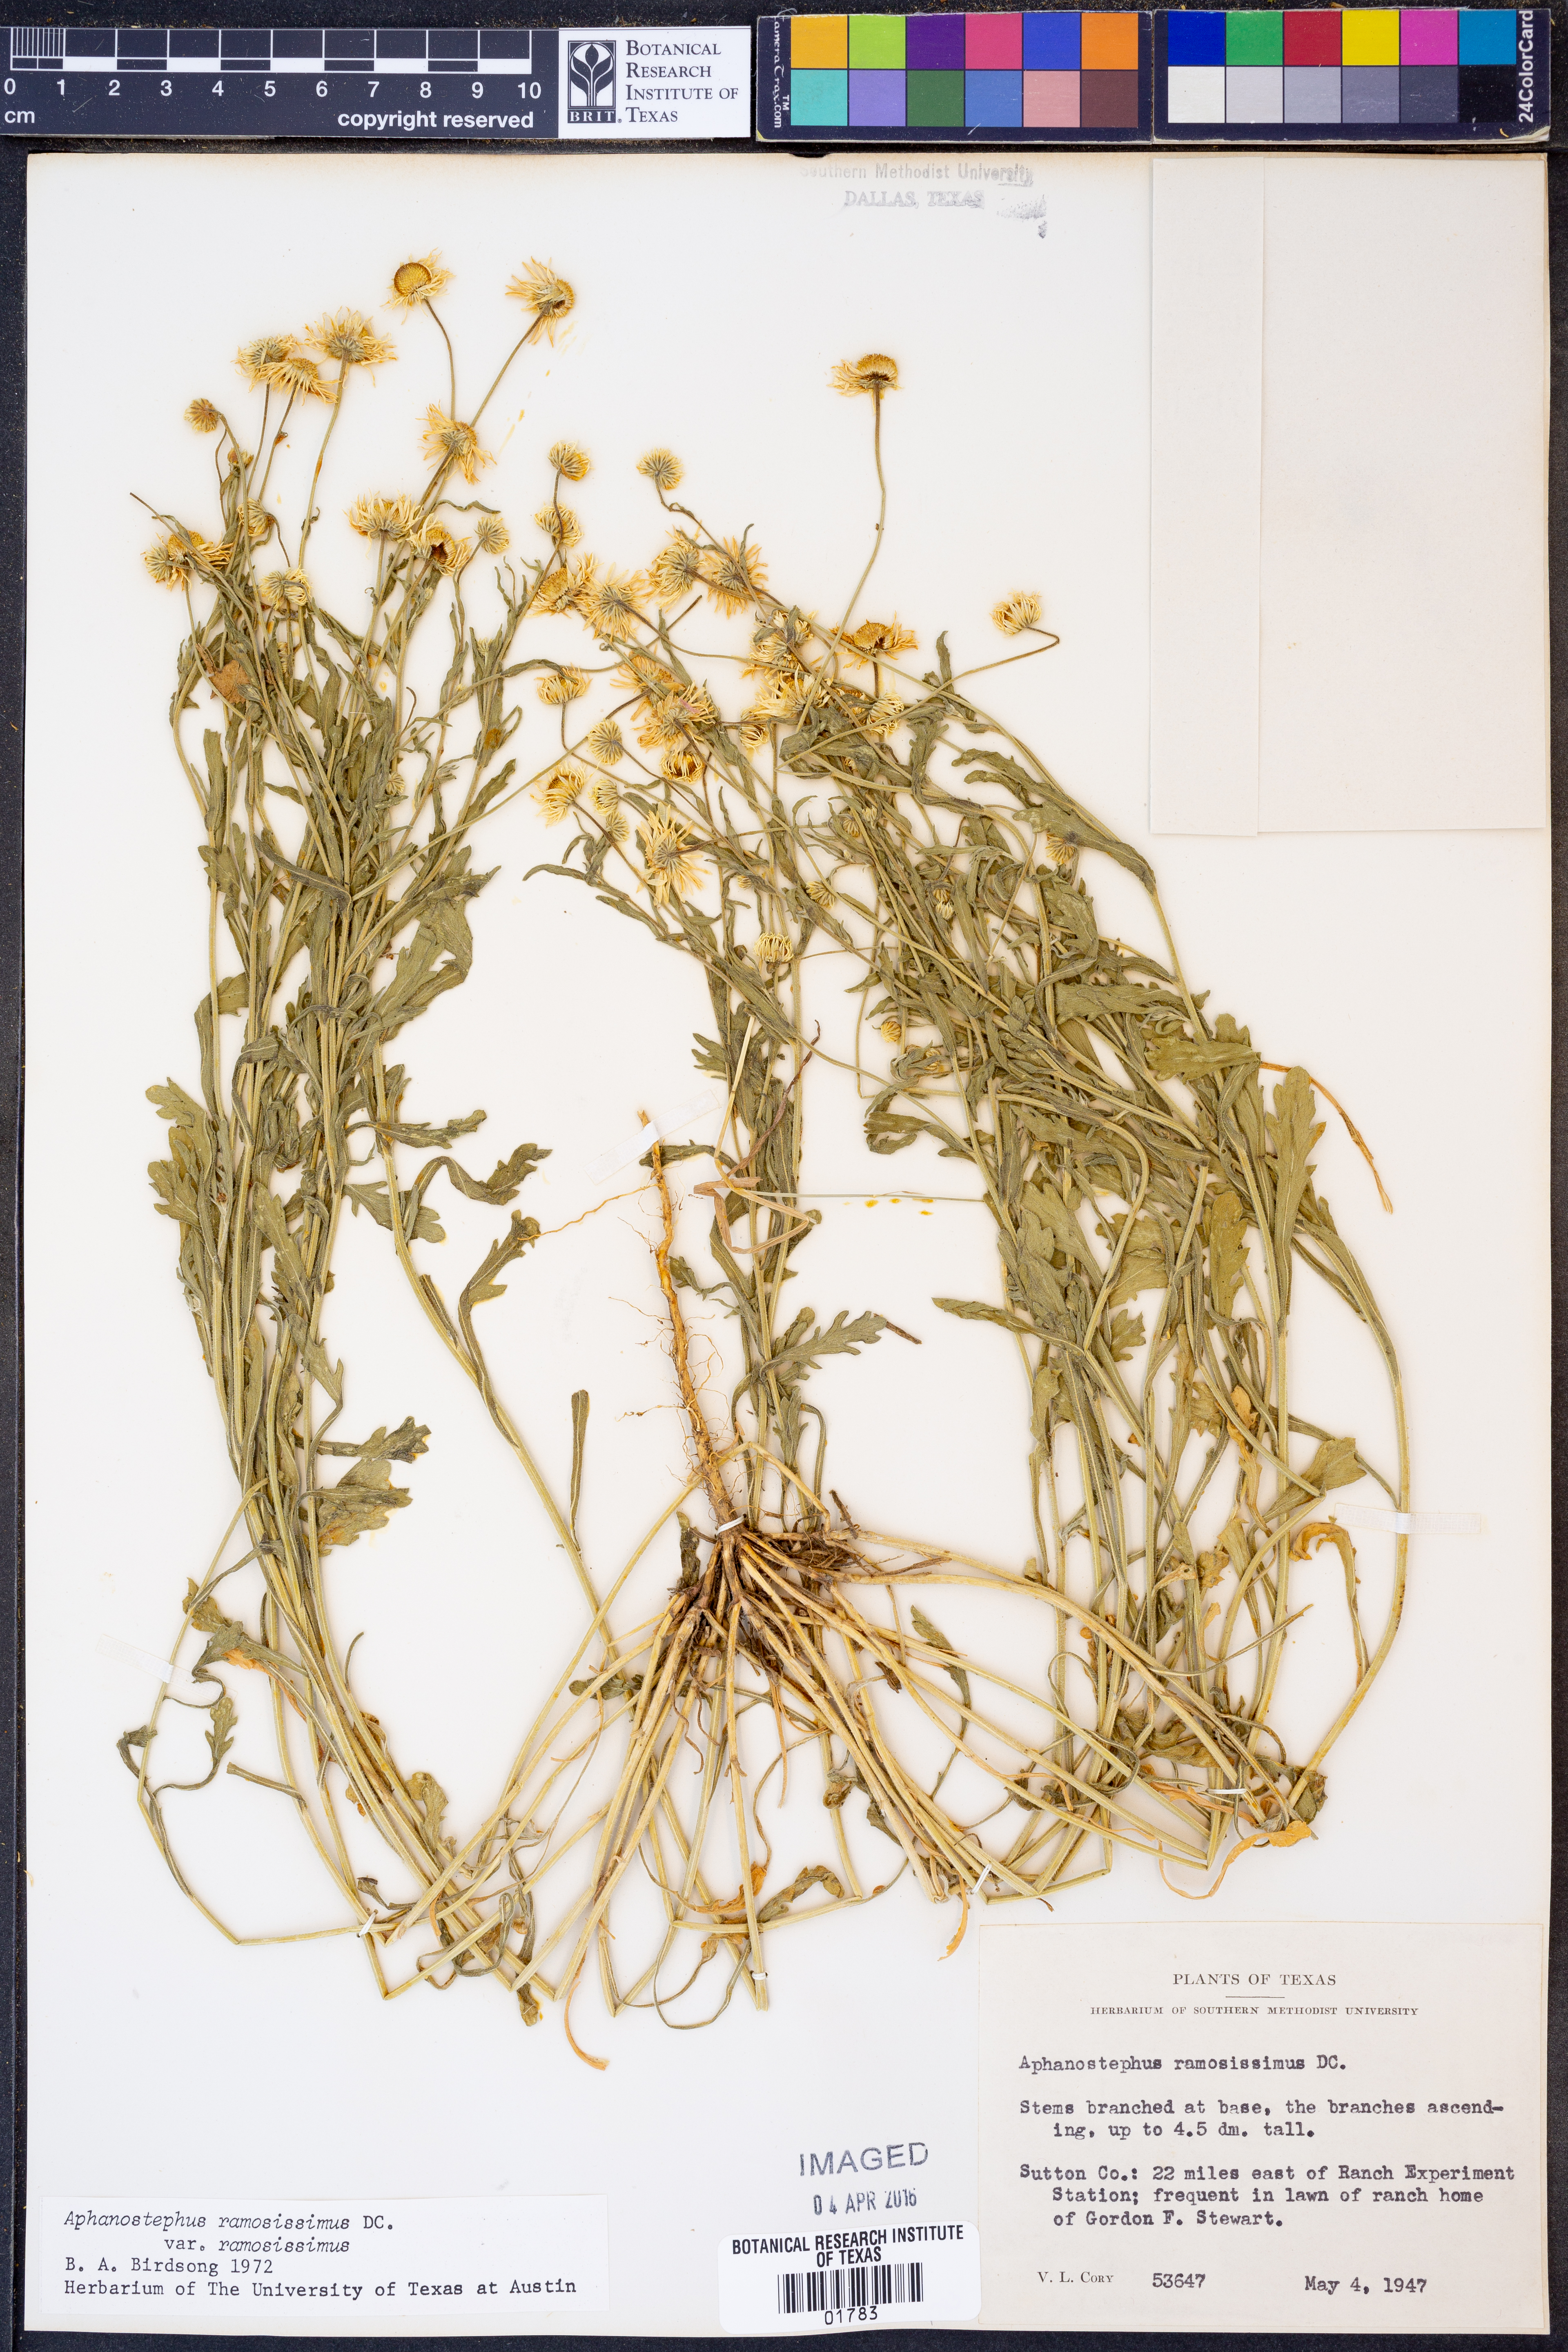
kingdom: Plantae
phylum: Tracheophyta
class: Magnoliopsida
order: Asterales
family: Asteraceae
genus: Aphanostephus
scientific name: Aphanostephus ramosissimus
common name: Plains lazy daisy
